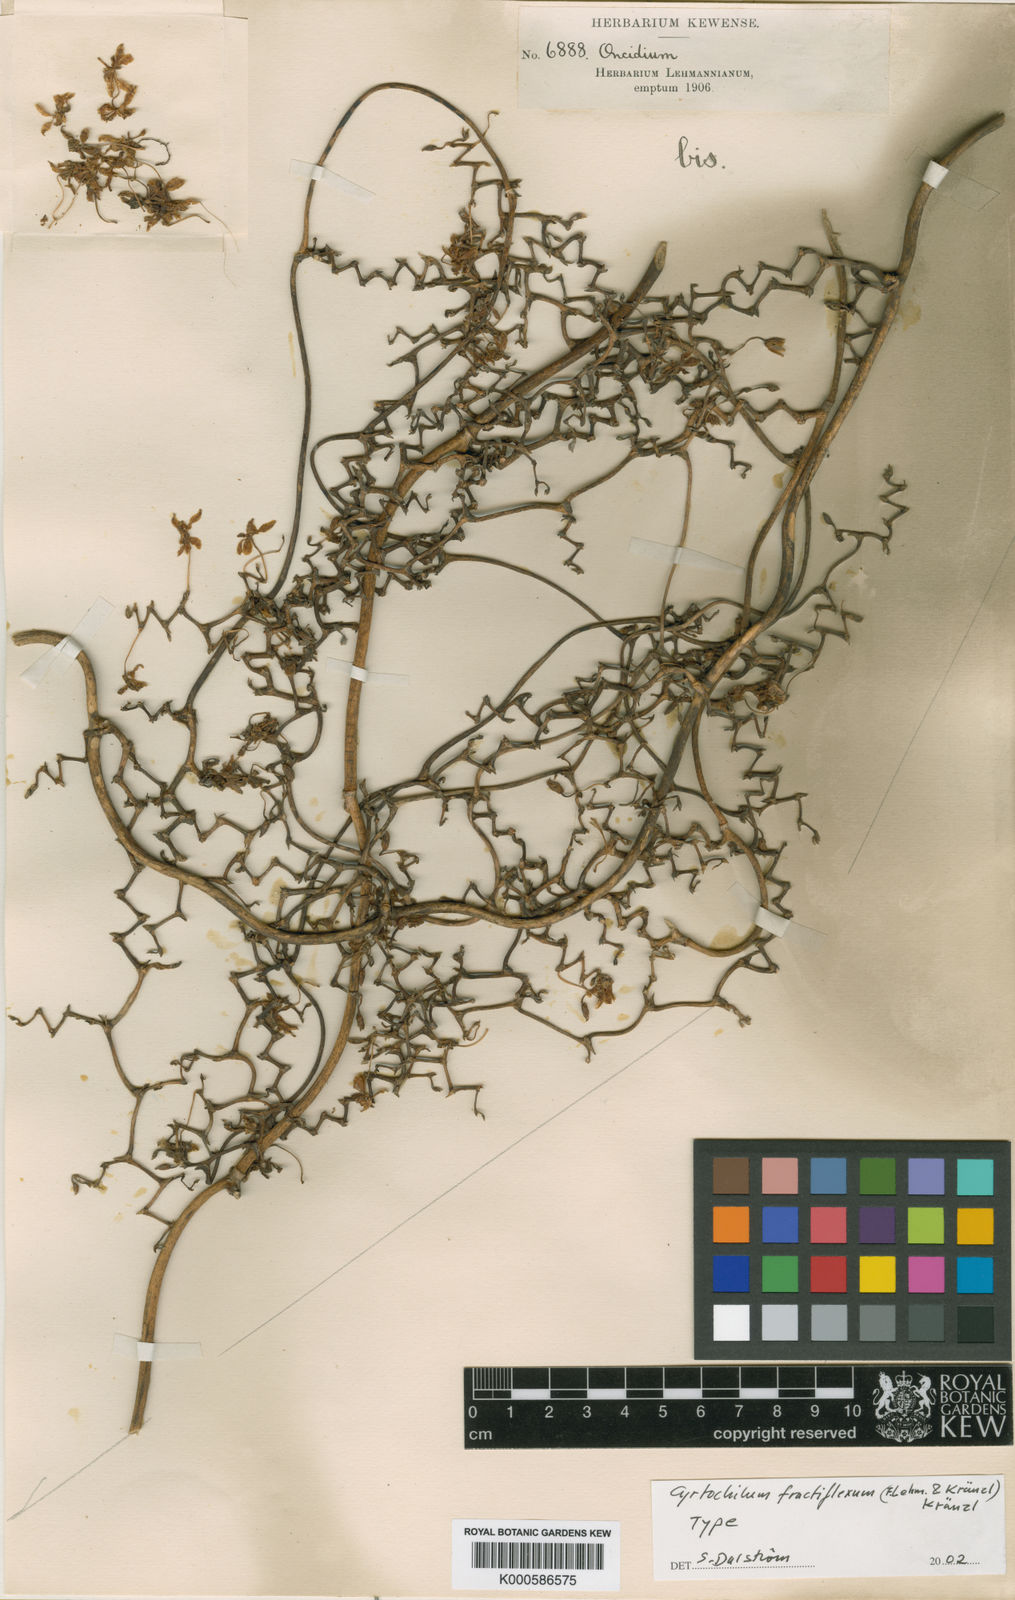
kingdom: Plantae
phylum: Tracheophyta
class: Liliopsida
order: Asparagales
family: Orchidaceae
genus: Cyrtochilum
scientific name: Cyrtochilum
